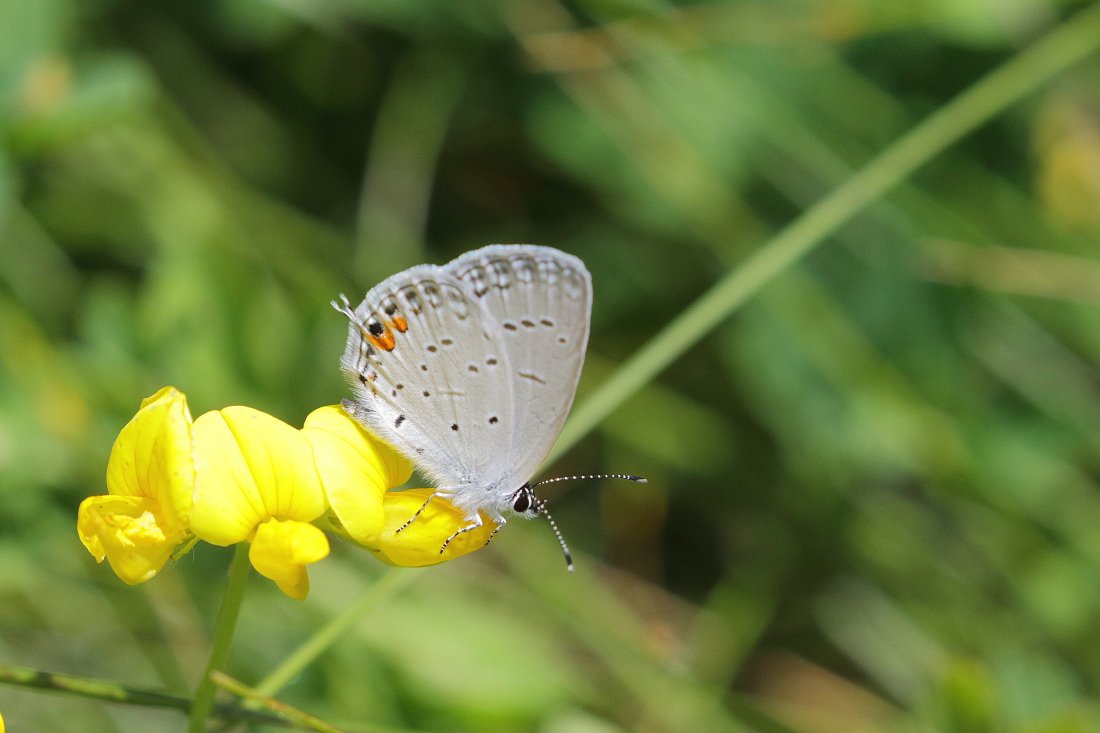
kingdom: Animalia
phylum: Arthropoda
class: Insecta
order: Lepidoptera
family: Lycaenidae
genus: Elkalyce
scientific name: Elkalyce comyntas
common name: Eastern Tailed-Blue
